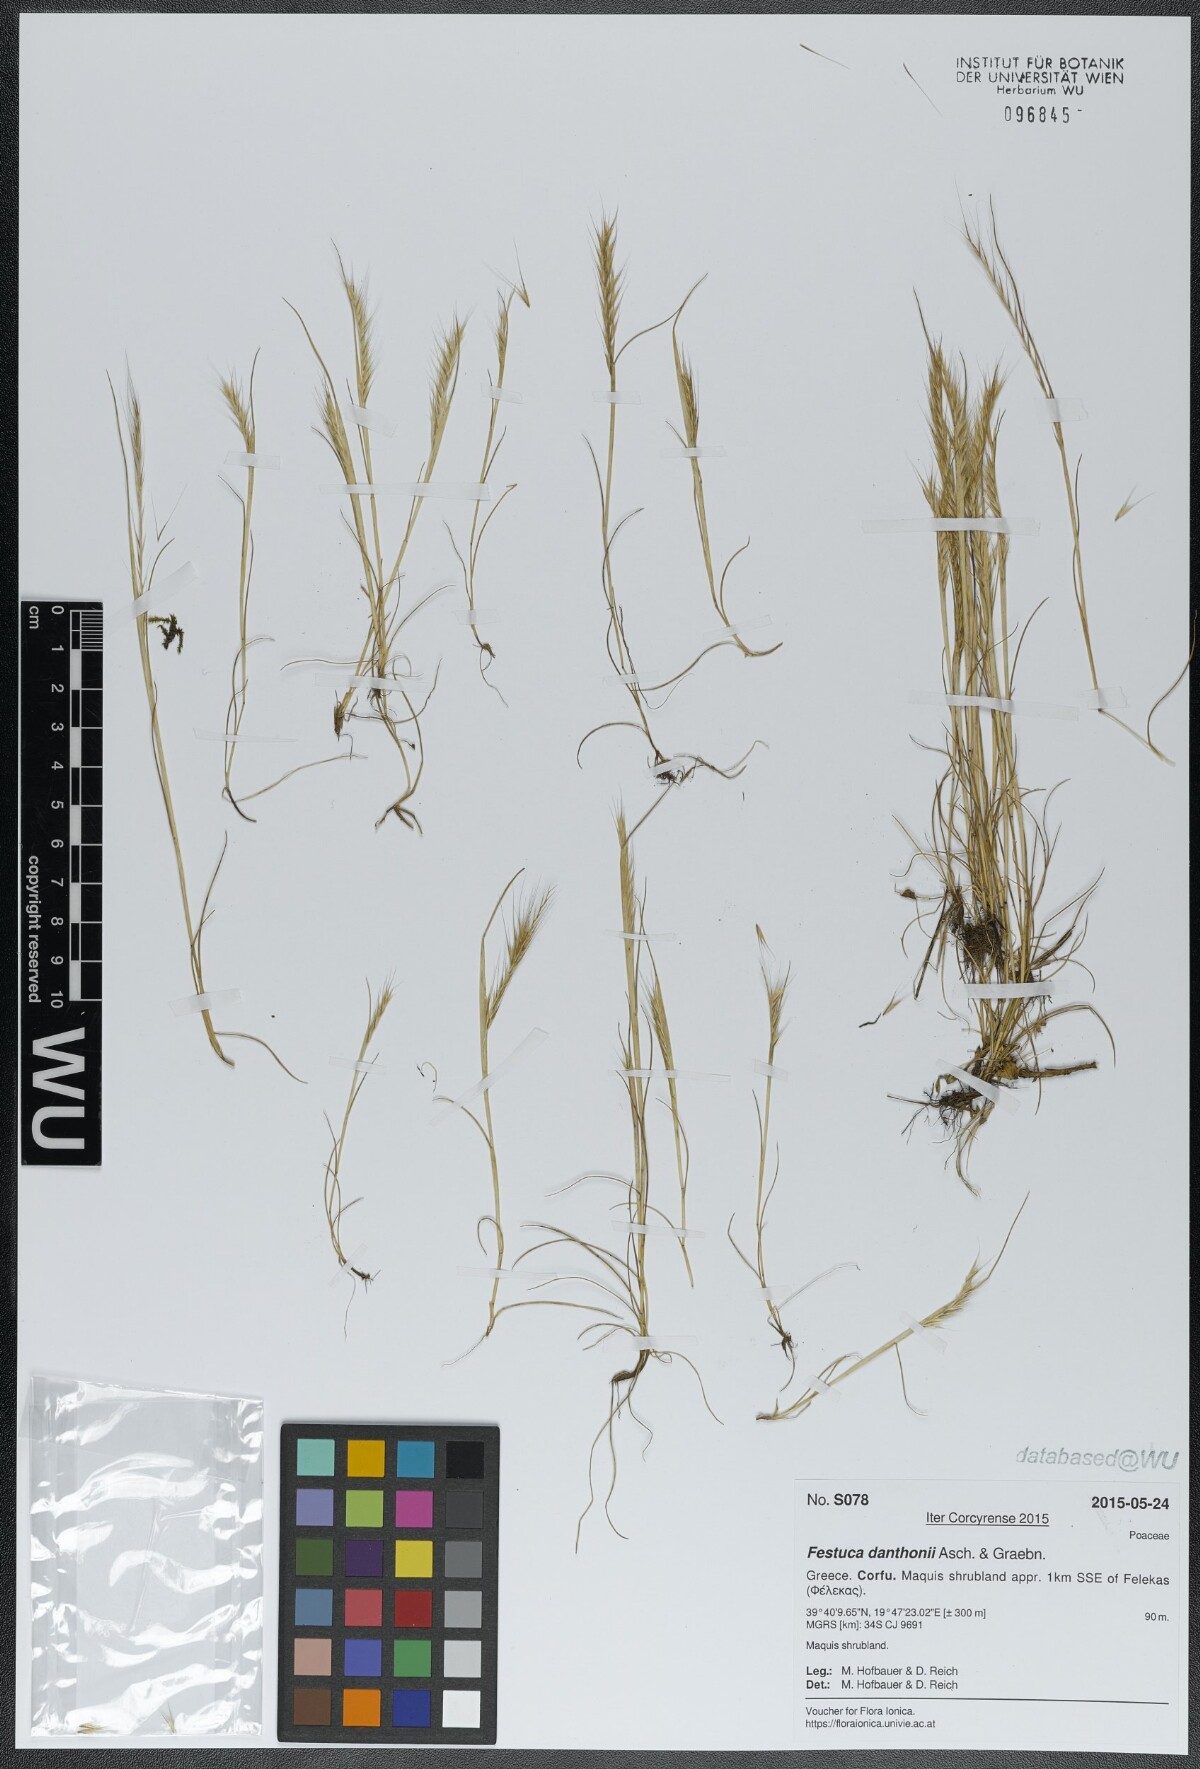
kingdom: Plantae
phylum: Tracheophyta
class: Liliopsida
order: Poales
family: Poaceae
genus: Festuca
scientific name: Festuca ambigua
